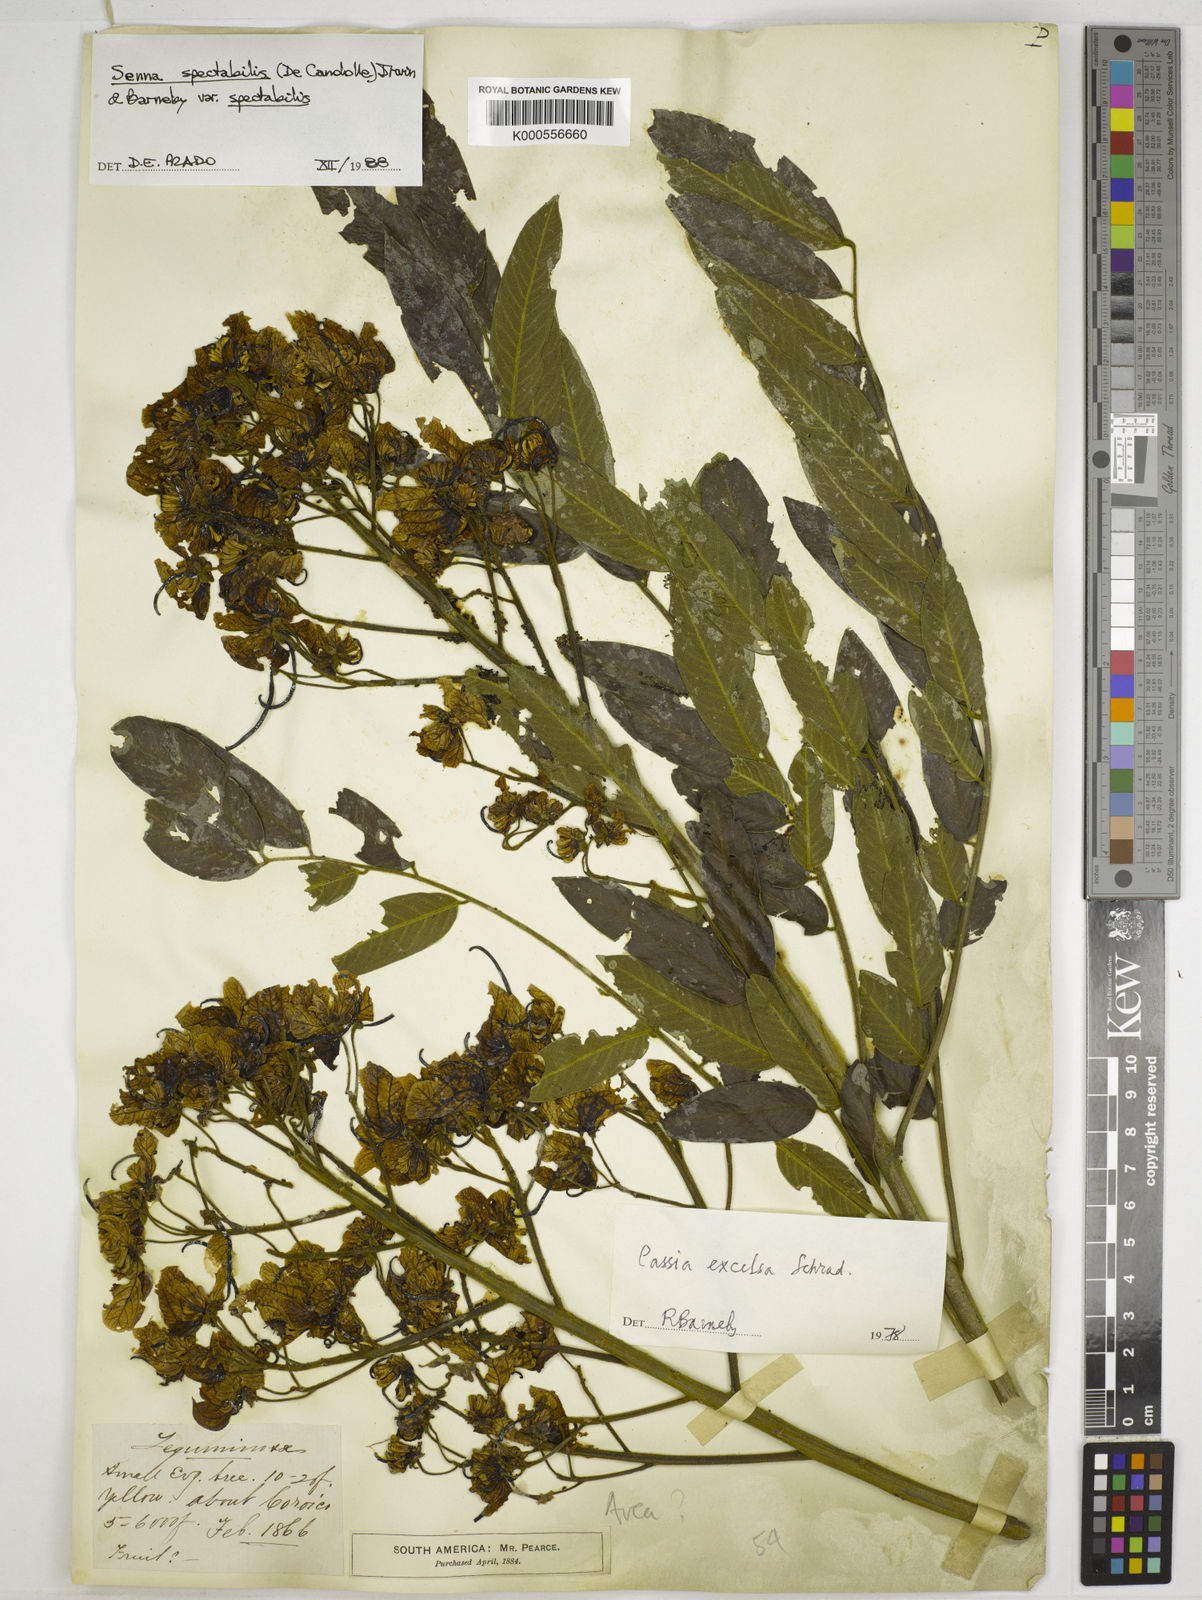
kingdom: Plantae
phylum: Tracheophyta
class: Magnoliopsida
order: Fabales
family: Fabaceae
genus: Senna
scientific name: Senna spectabilis
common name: Casia amarilla
